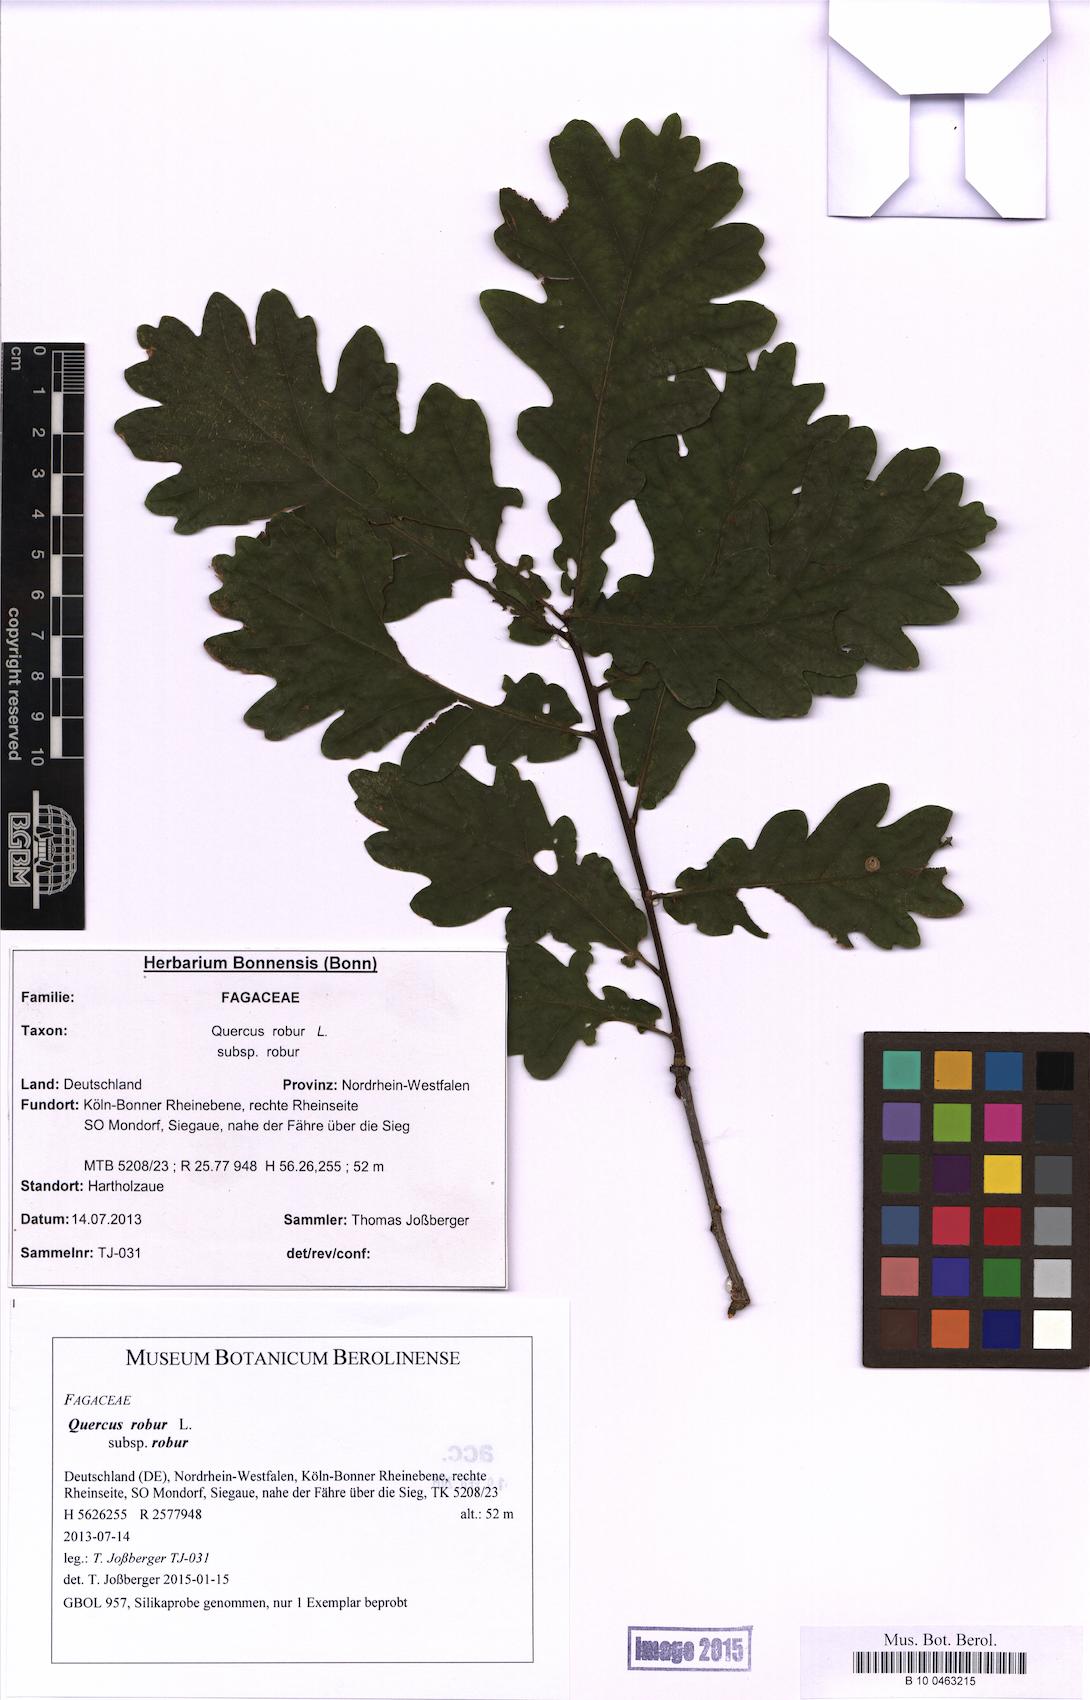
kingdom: Plantae
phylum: Tracheophyta
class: Magnoliopsida
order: Fagales
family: Fagaceae
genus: Quercus
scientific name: Quercus robur
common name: Pedunculate oak
